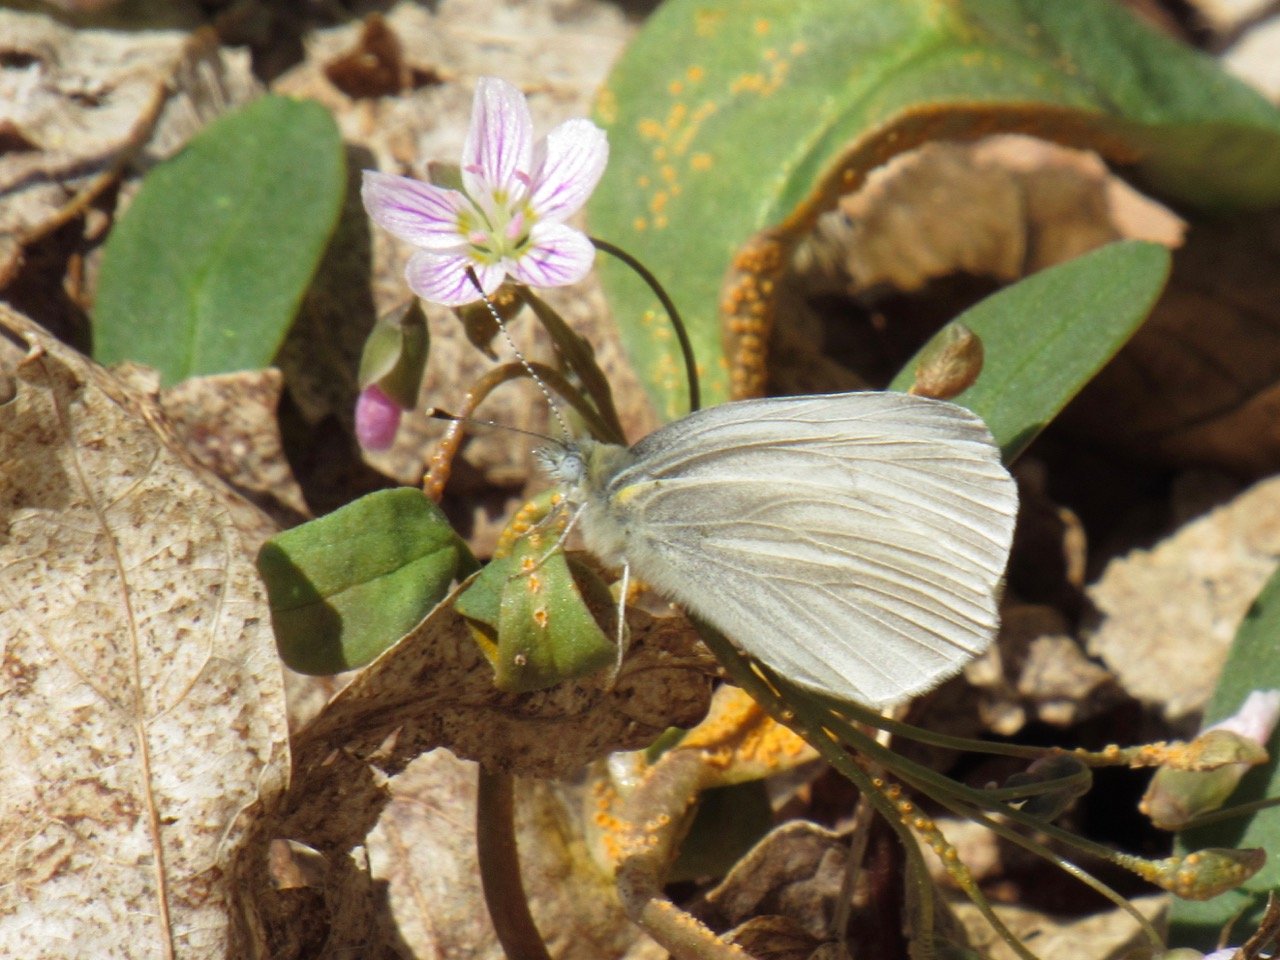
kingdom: Animalia
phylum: Arthropoda
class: Insecta
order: Lepidoptera
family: Pieridae
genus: Pieris
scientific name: Pieris virginiensis
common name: West Virginia White
